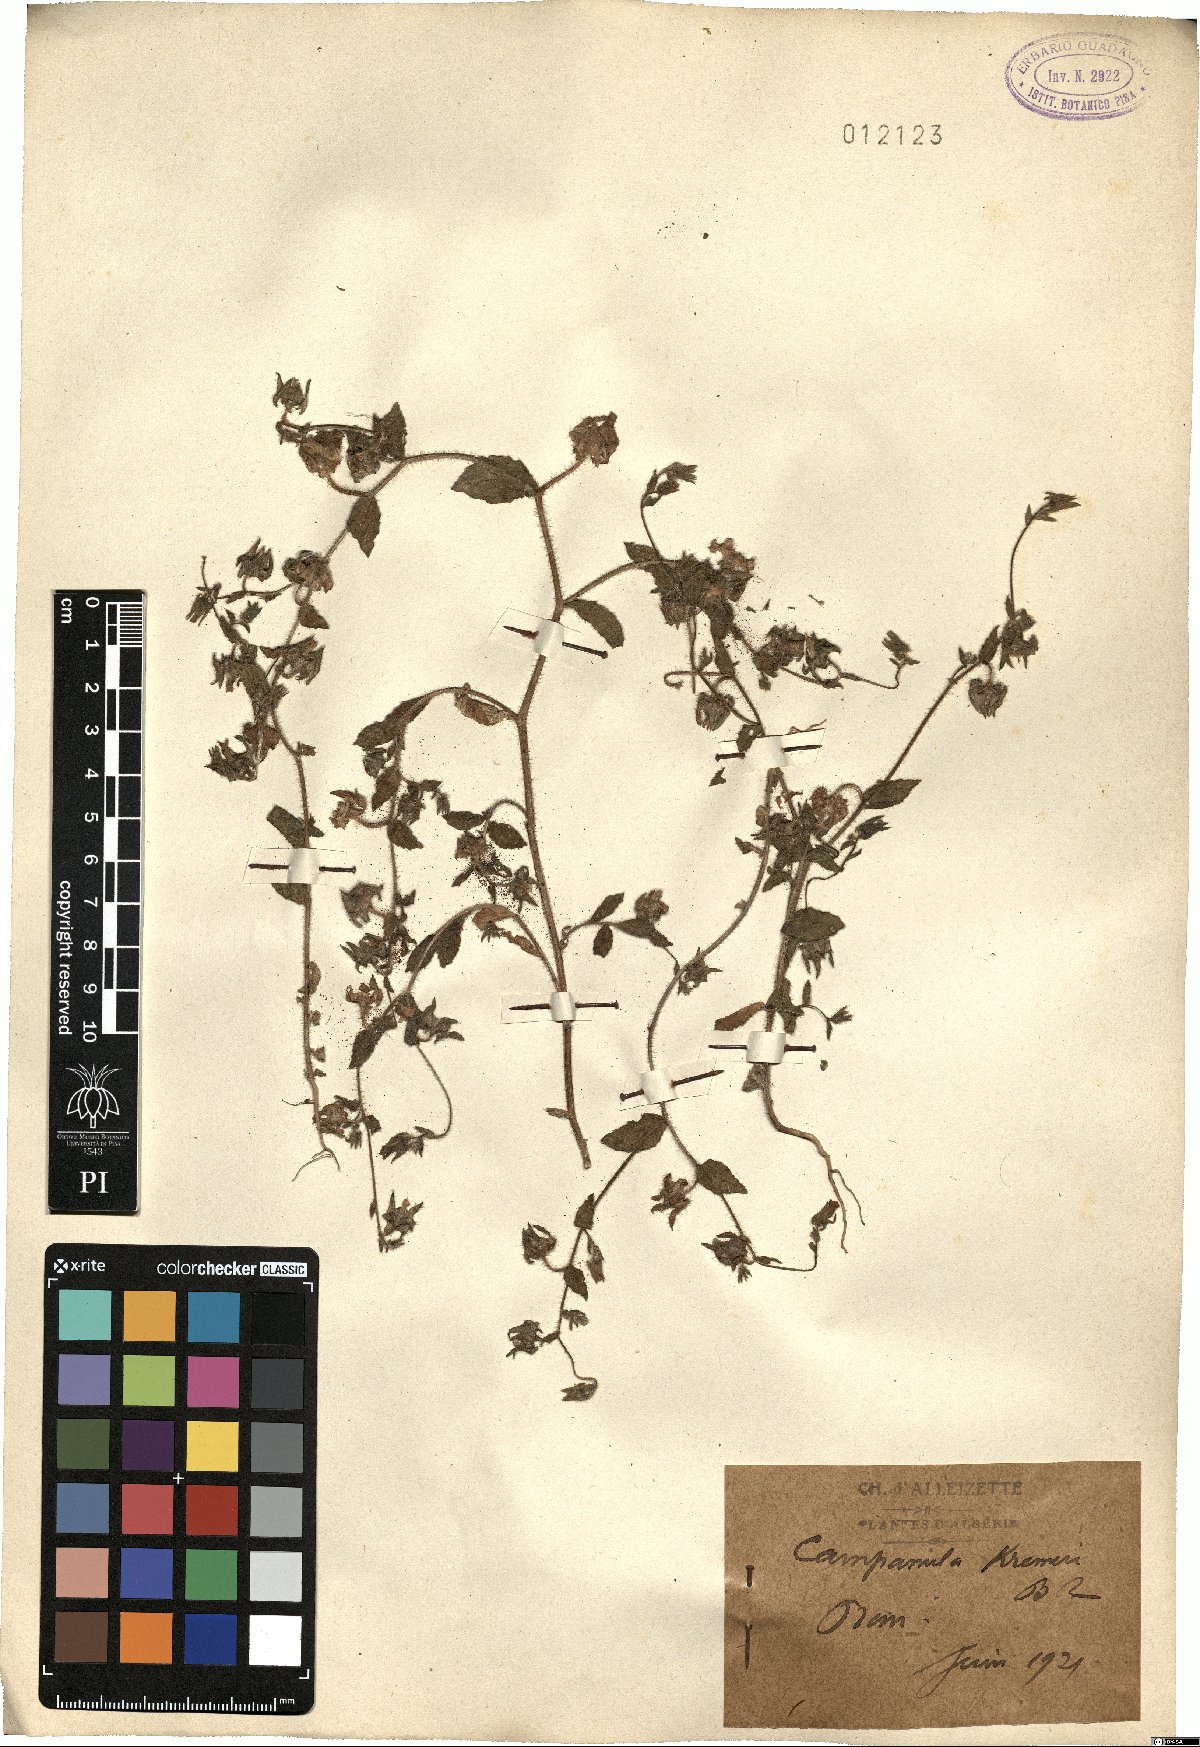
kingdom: Plantae
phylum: Tracheophyta
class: Magnoliopsida
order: Asterales
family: Campanulaceae
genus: Campanula
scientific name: Campanula afra
